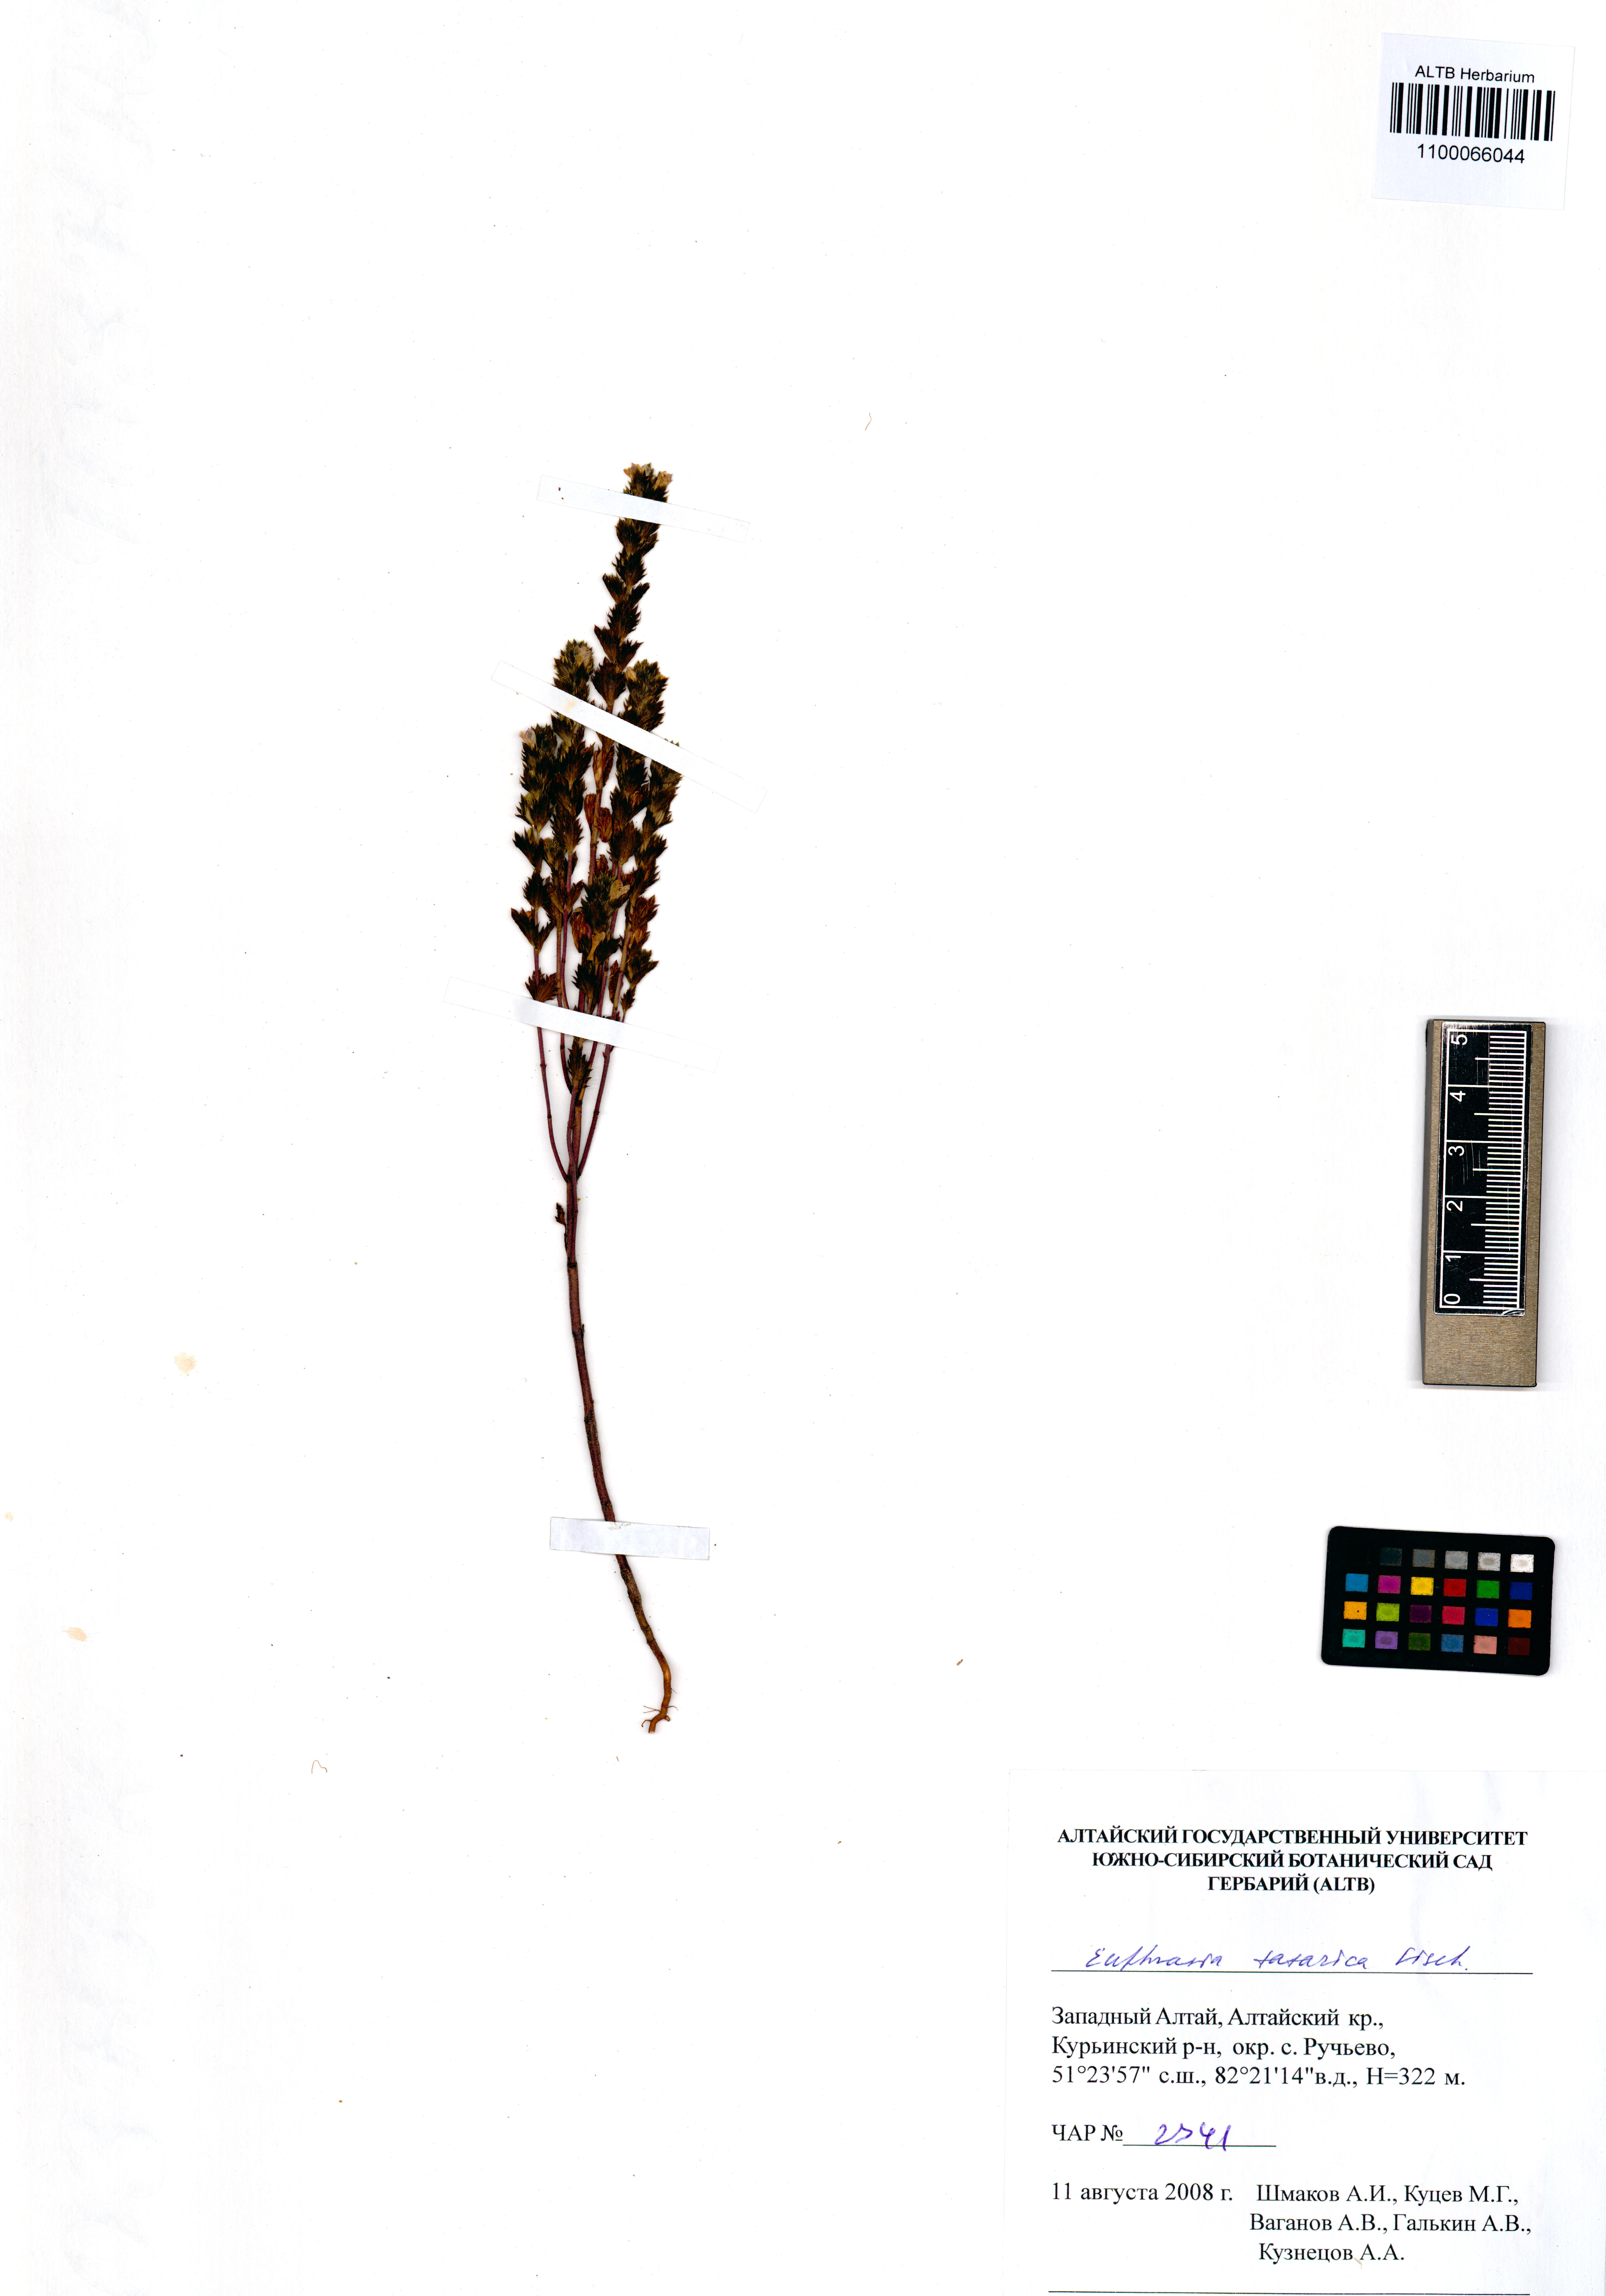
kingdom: Plantae
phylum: Tracheophyta
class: Magnoliopsida
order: Lamiales
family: Orobanchaceae
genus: Euphrasia
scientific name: Euphrasia pectinata
